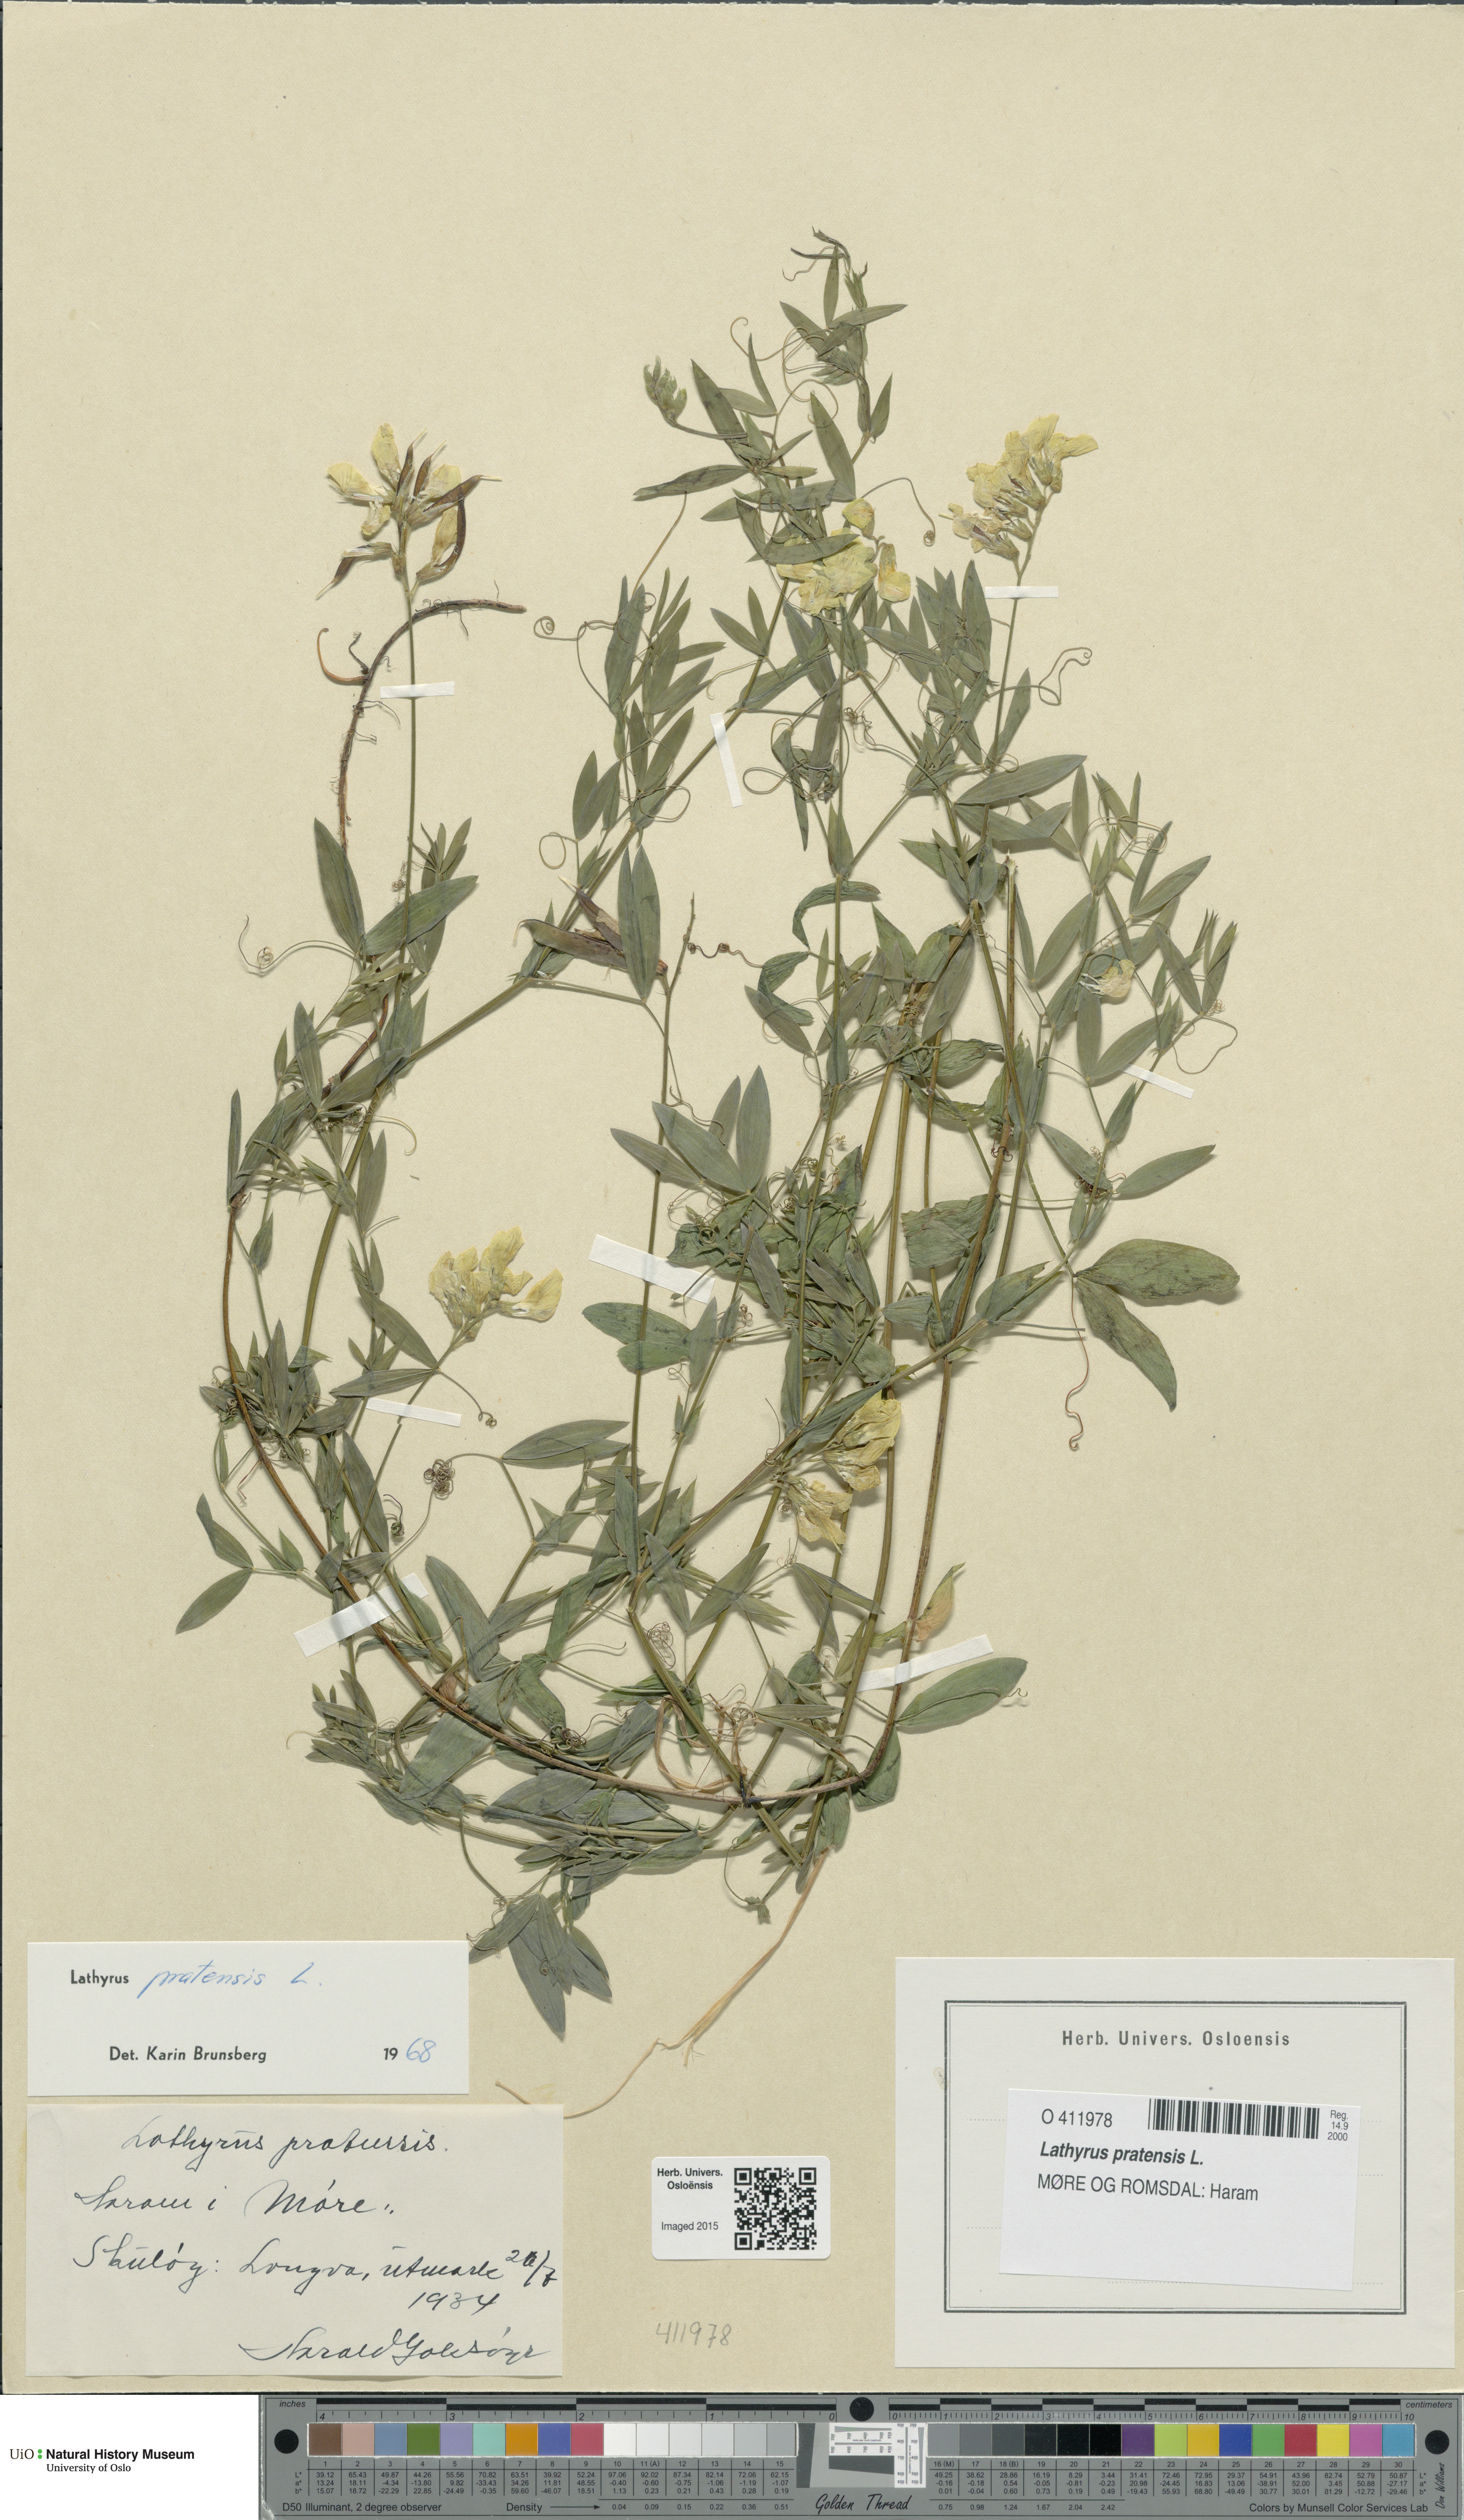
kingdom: Plantae
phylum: Tracheophyta
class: Magnoliopsida
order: Fabales
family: Fabaceae
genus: Lathyrus
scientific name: Lathyrus pratensis
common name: Meadow vetchling
